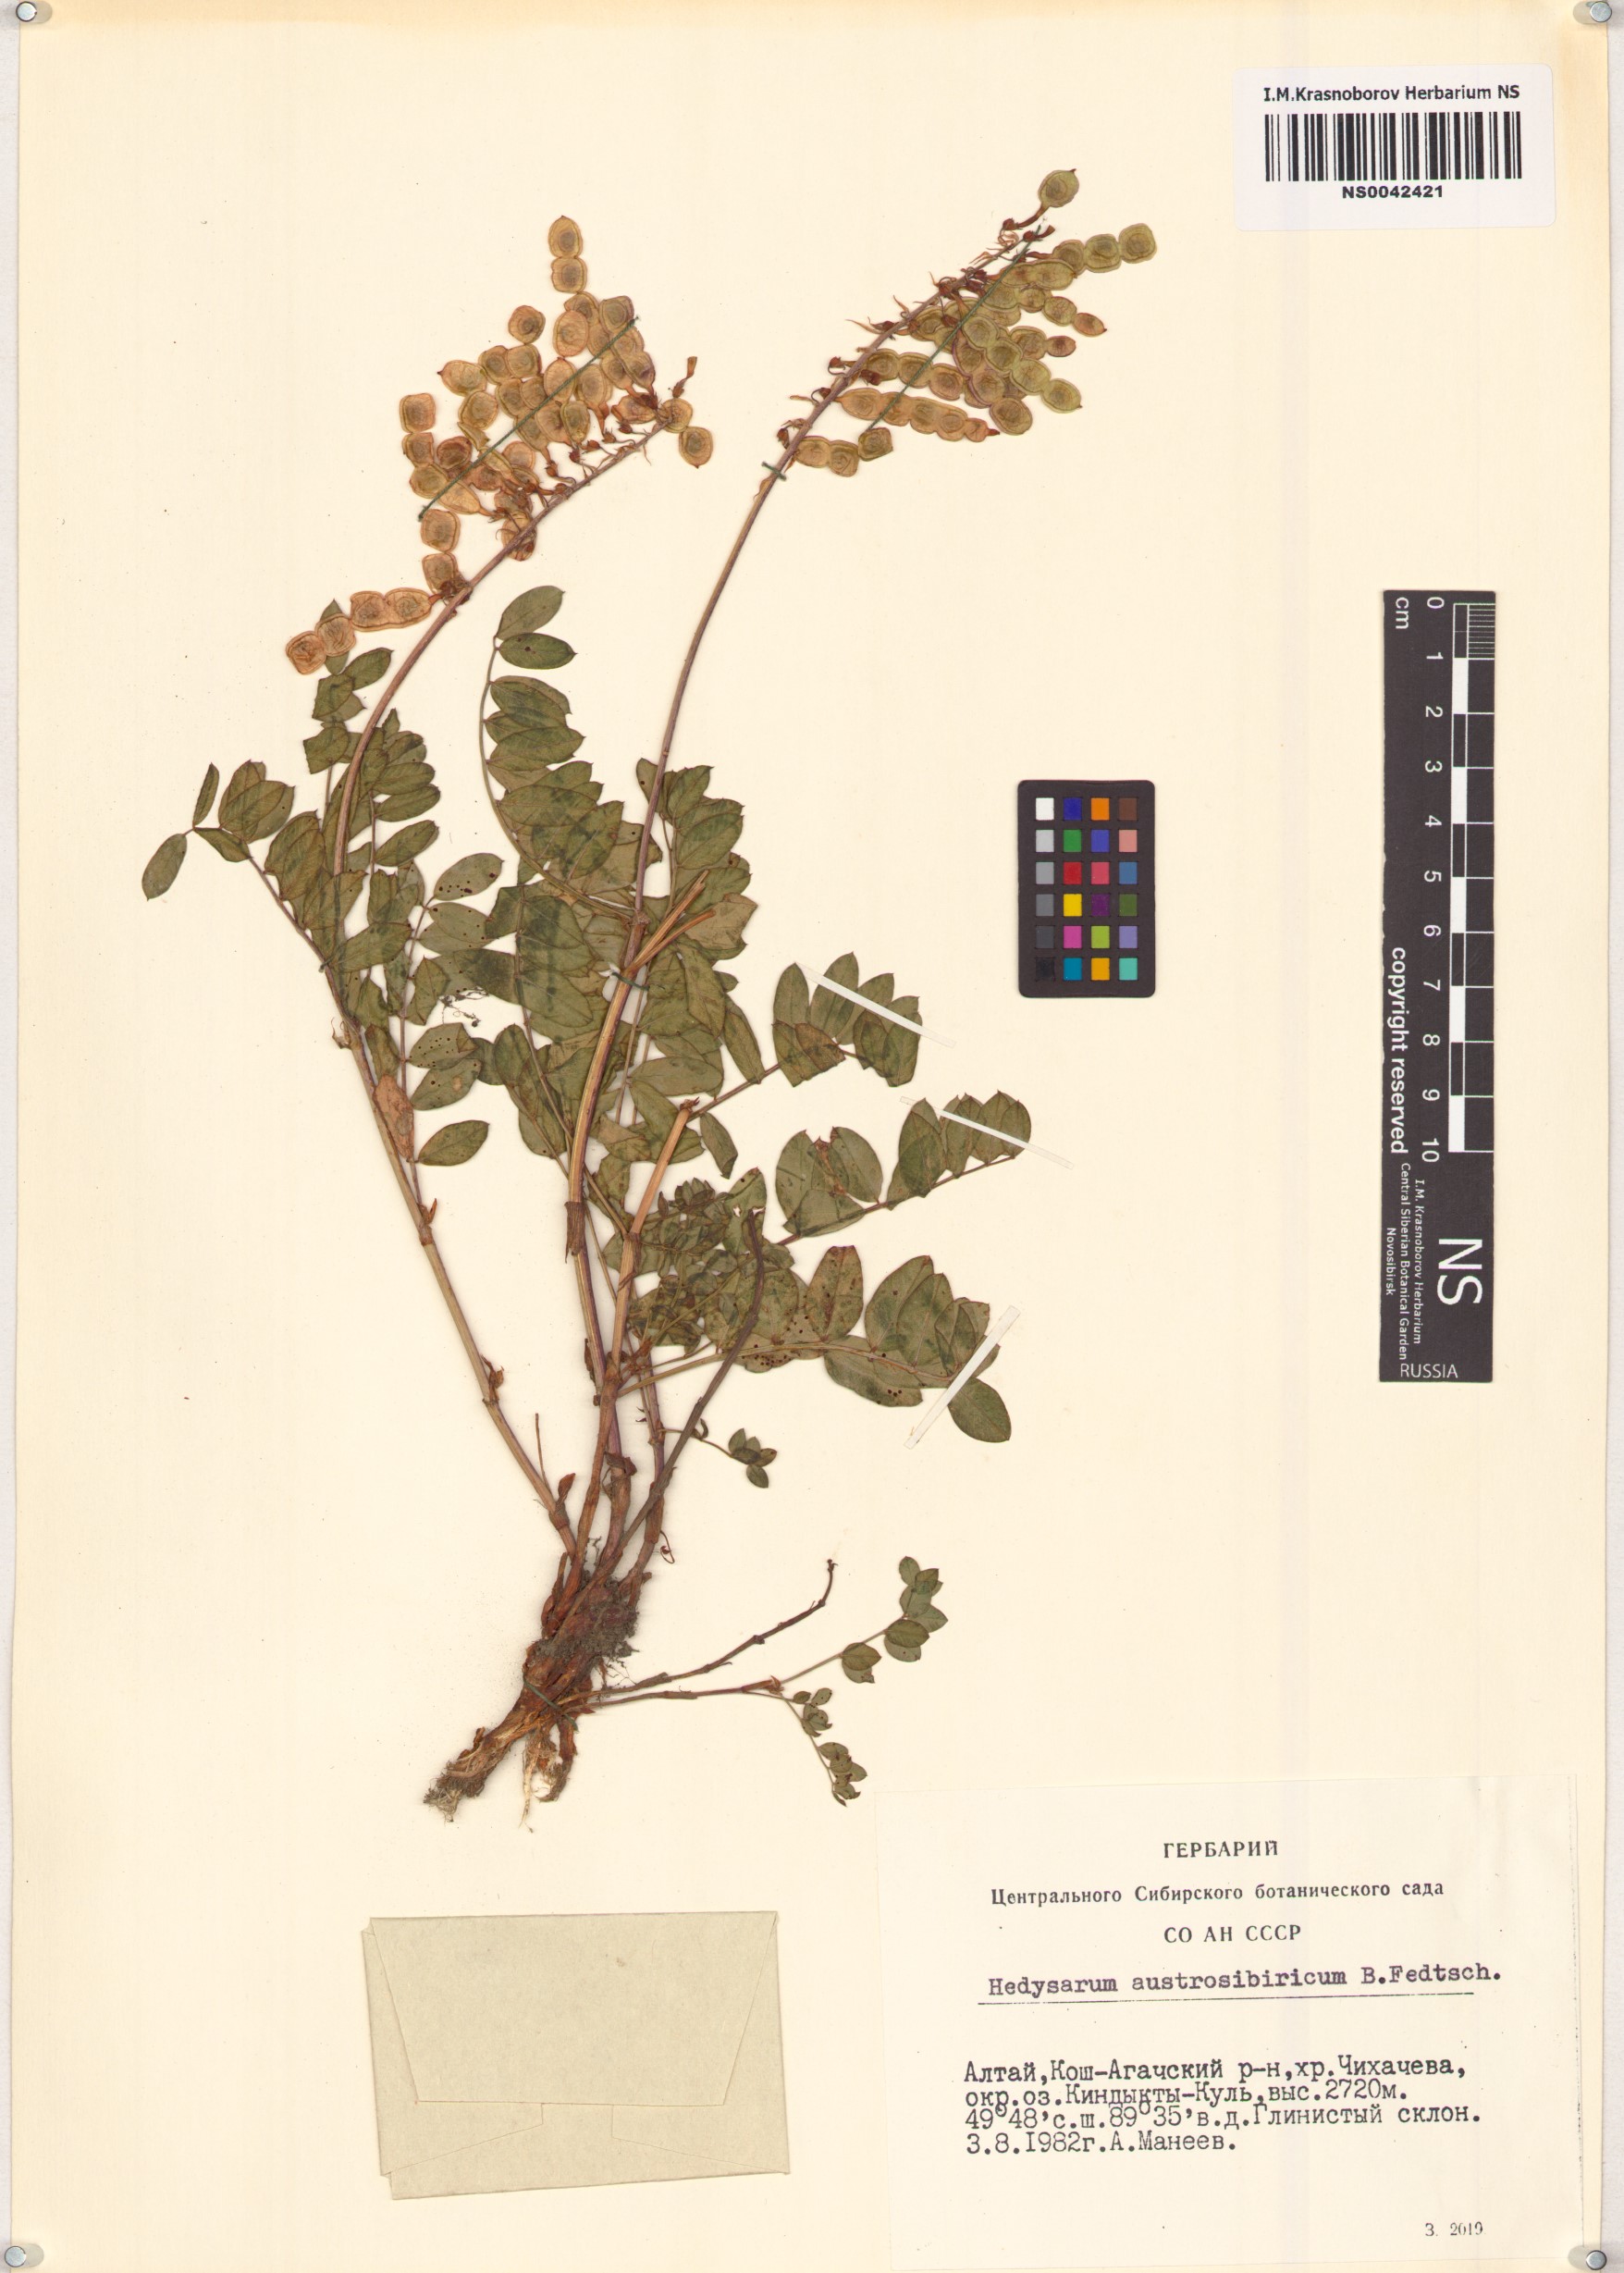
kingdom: Plantae
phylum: Tracheophyta
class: Magnoliopsida
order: Fabales
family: Fabaceae
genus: Hedysarum
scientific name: Hedysarum neglectum
